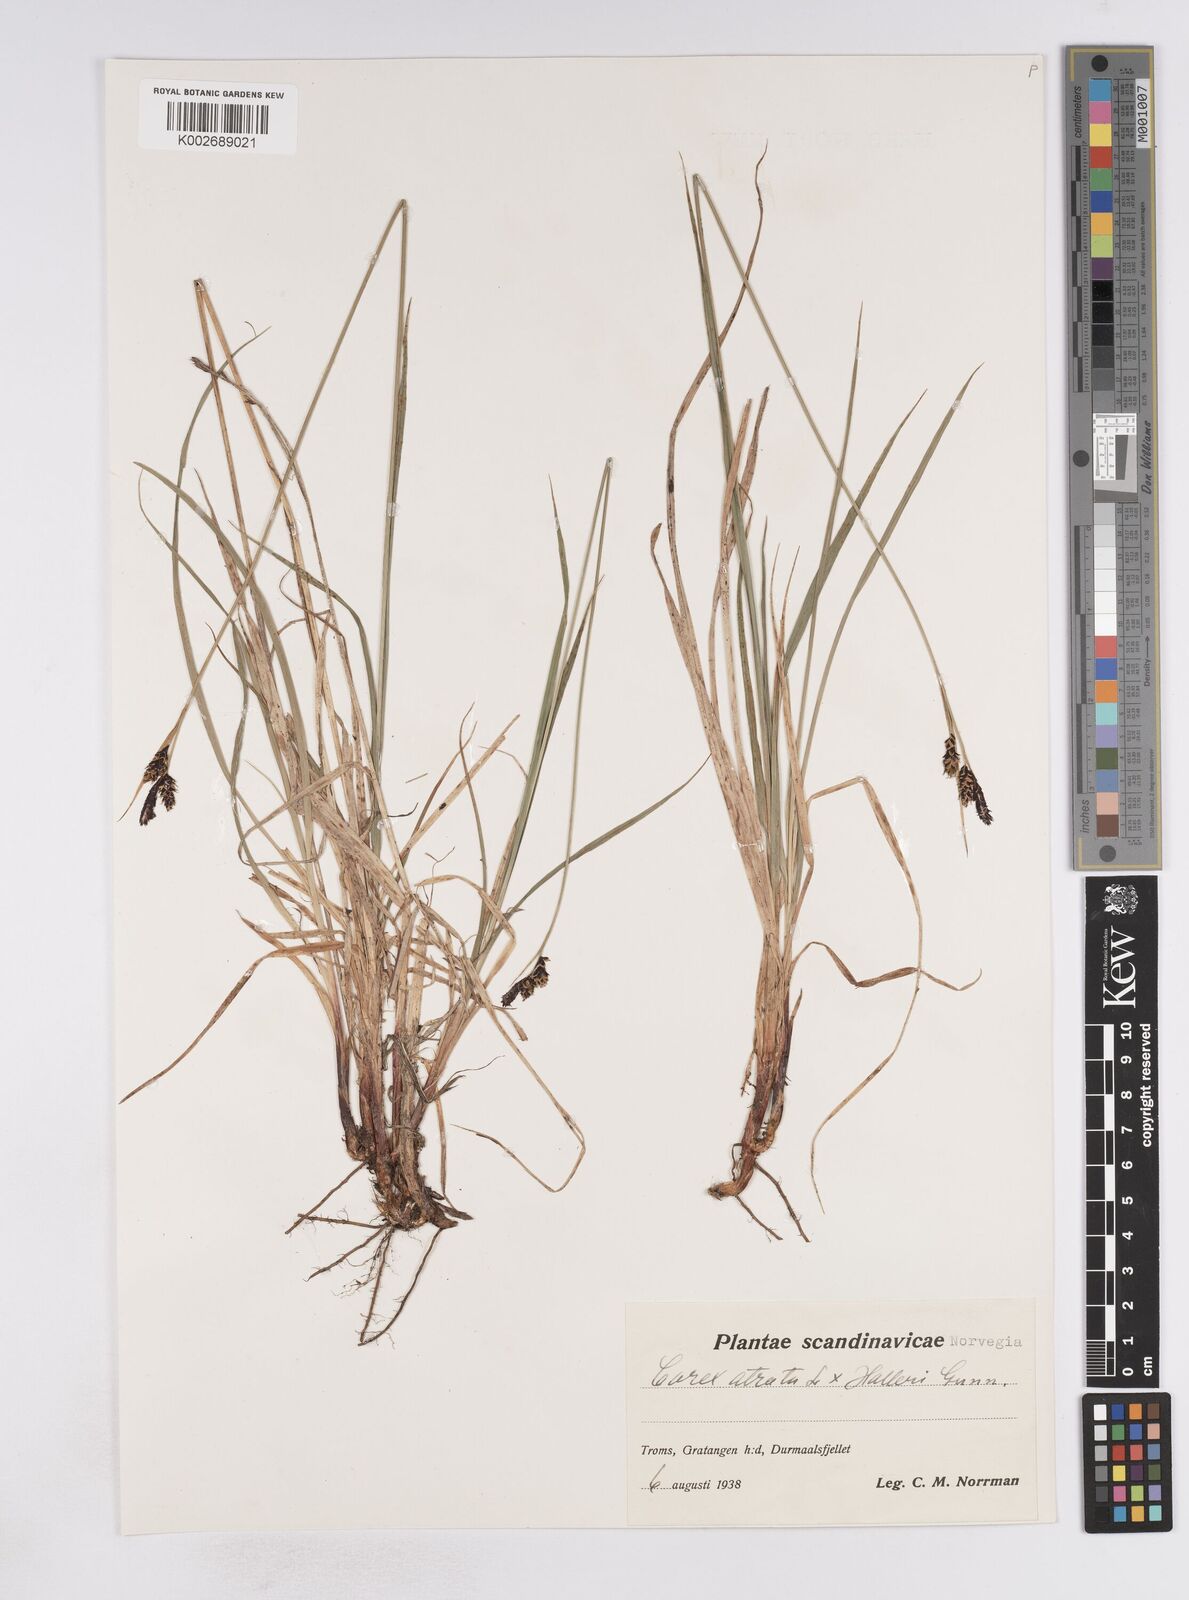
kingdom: Plantae
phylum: Tracheophyta
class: Liliopsida
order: Poales
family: Cyperaceae
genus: Carex
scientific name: Carex atrata
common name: Black alpine sedge
